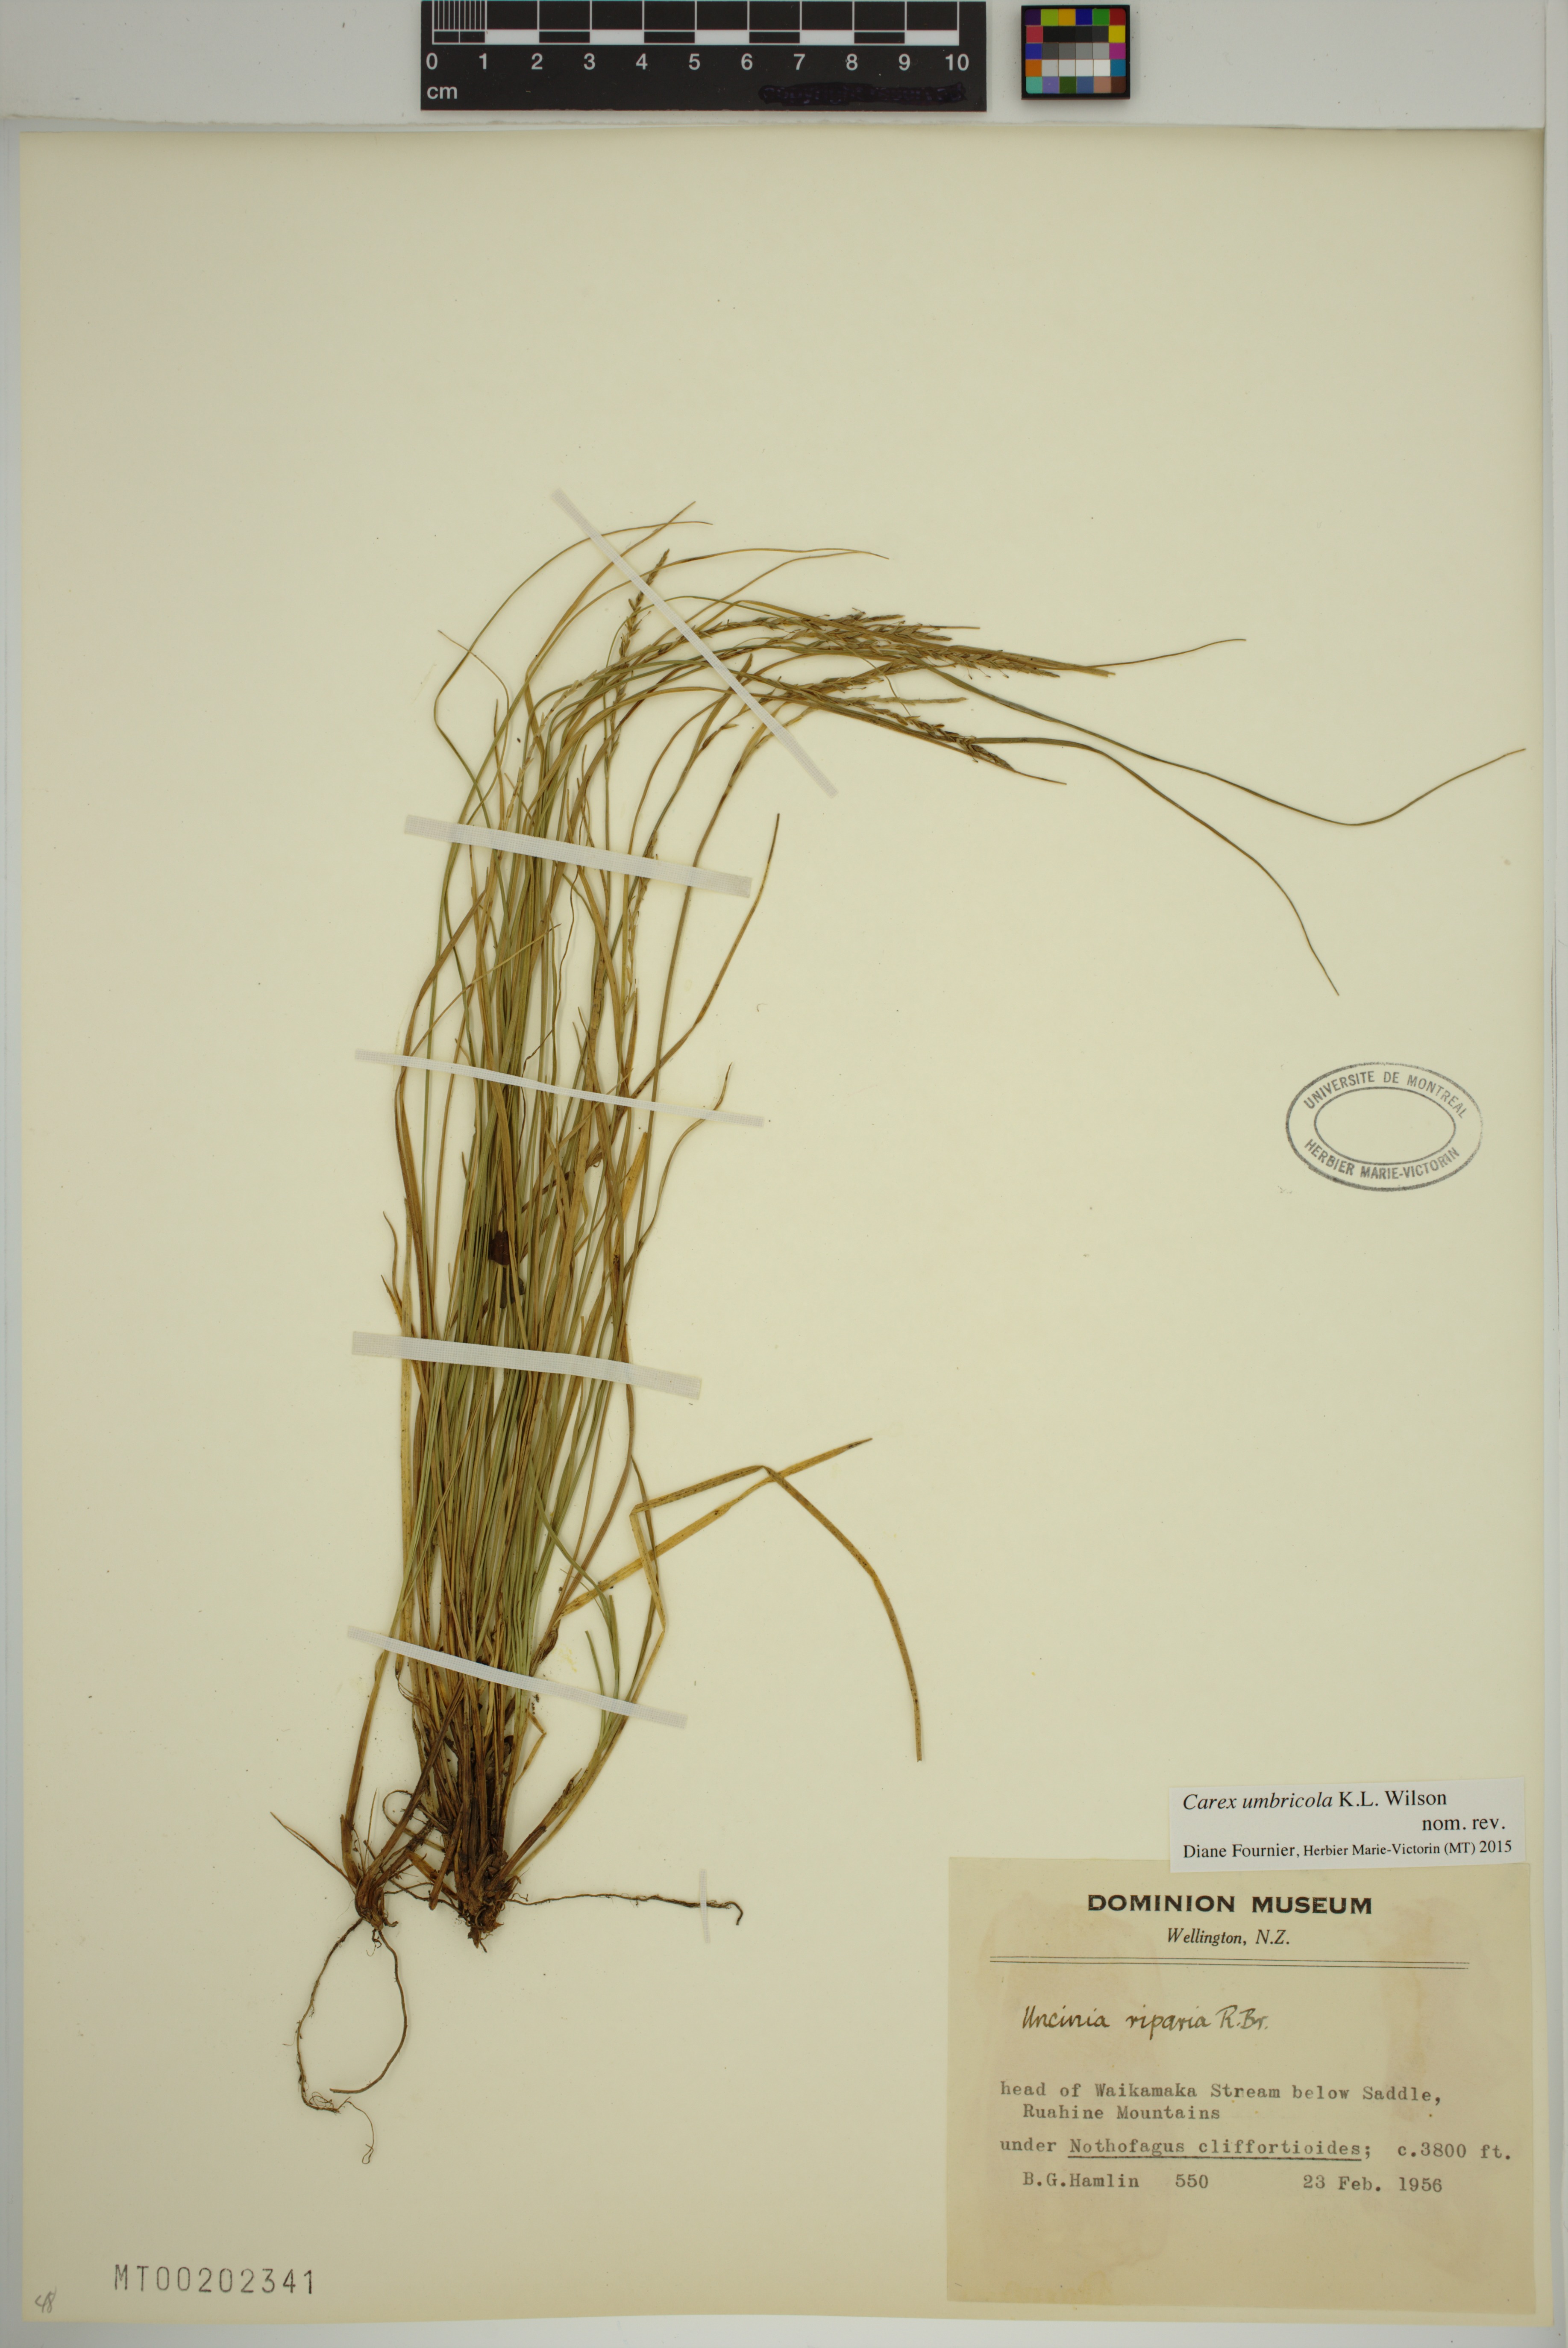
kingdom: Plantae
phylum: Tracheophyta
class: Liliopsida
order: Poales
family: Cyperaceae
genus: Carex
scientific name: Carex umbricola
